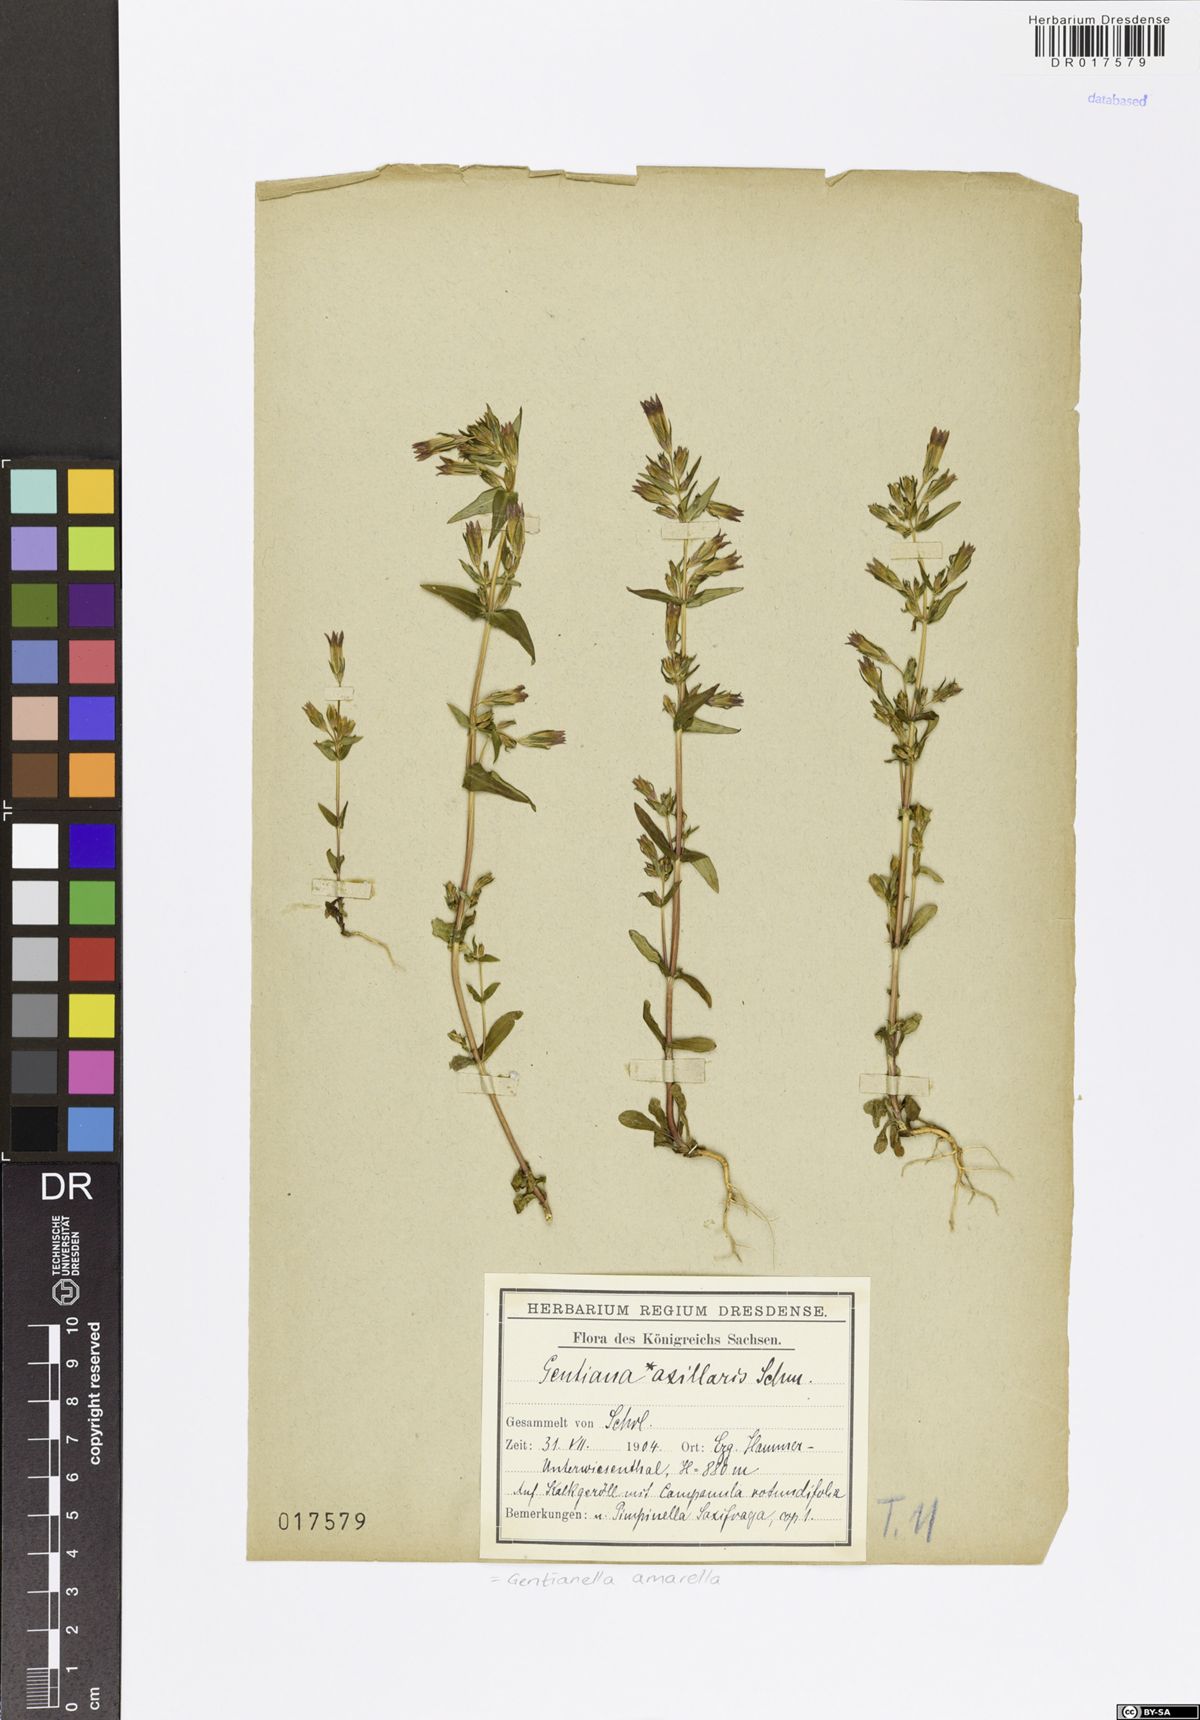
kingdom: Plantae
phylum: Tracheophyta
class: Magnoliopsida
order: Gentianales
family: Gentianaceae
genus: Gentianella
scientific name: Gentianella amarella
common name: Autumn gentian
